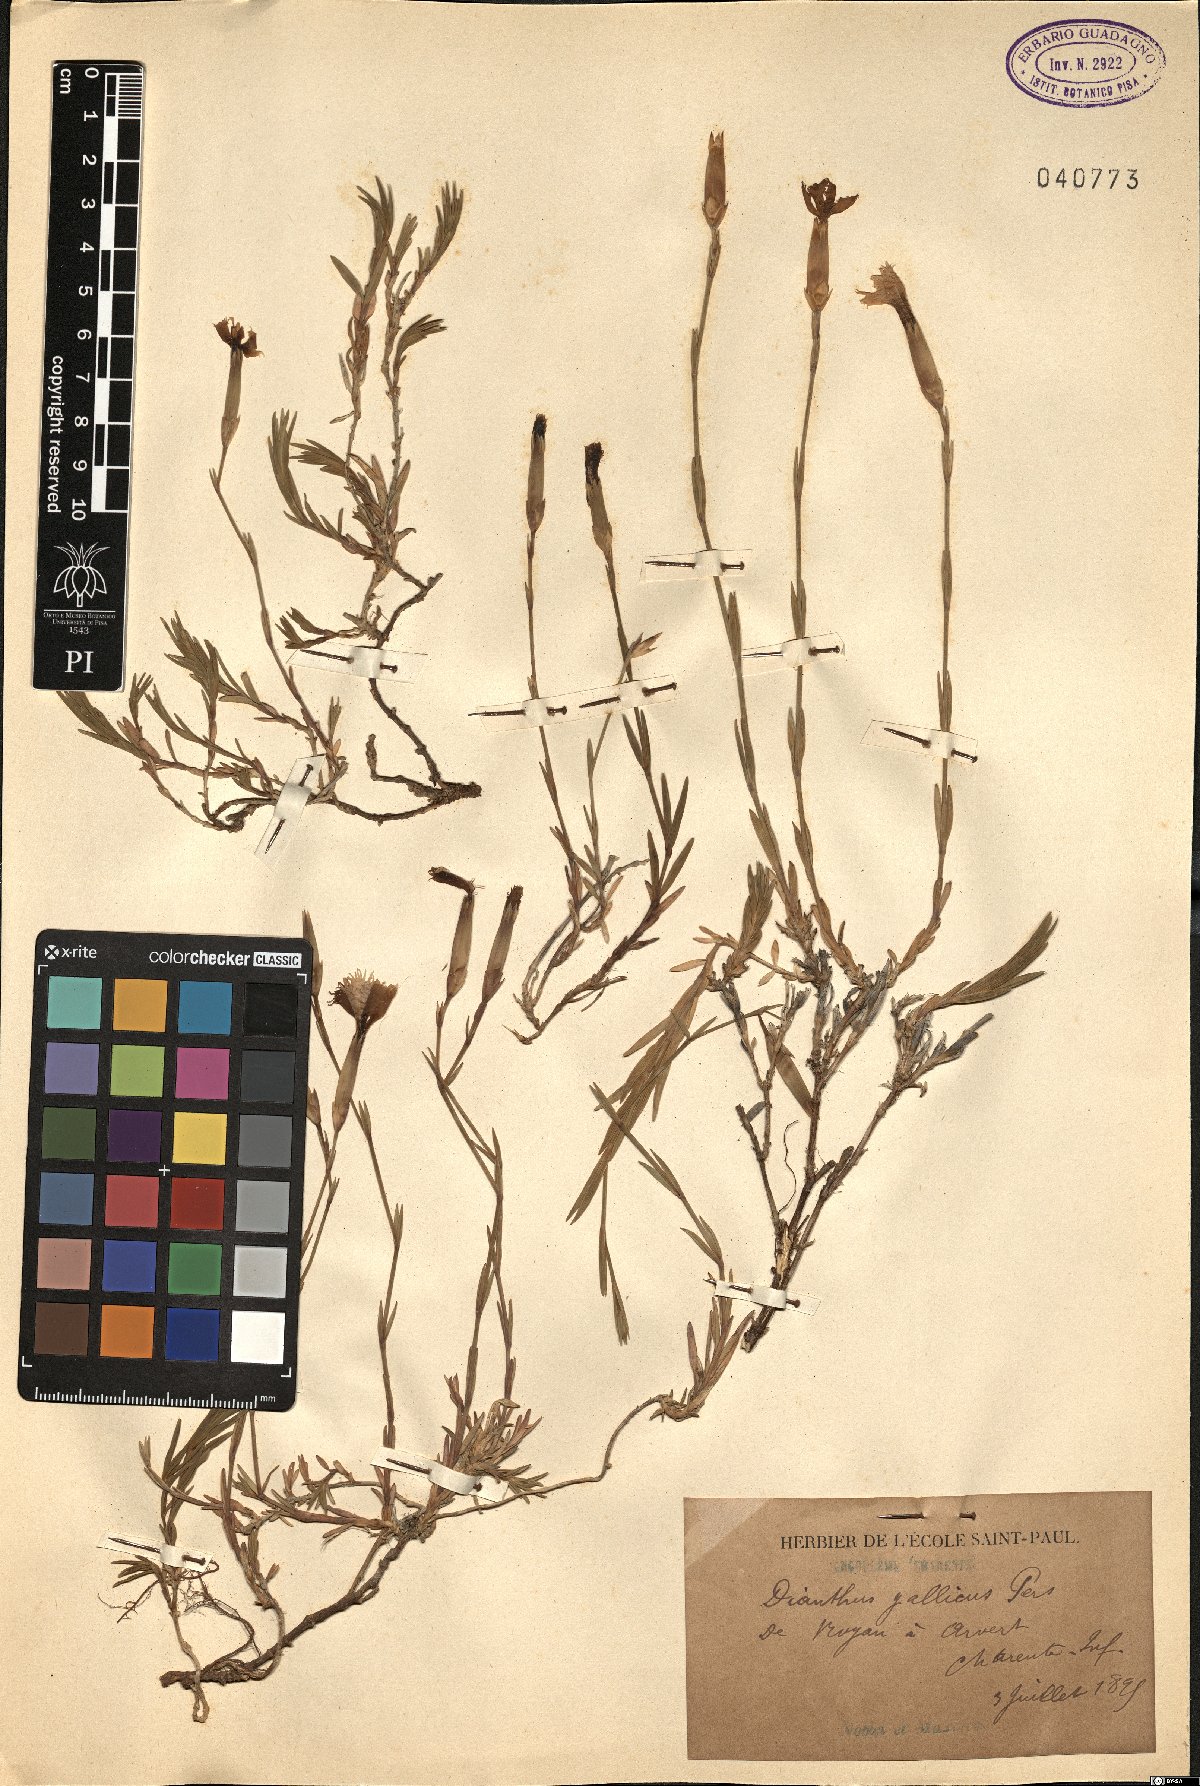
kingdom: Plantae
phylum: Tracheophyta
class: Magnoliopsida
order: Caryophyllales
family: Caryophyllaceae
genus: Dianthus
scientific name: Dianthus gallicus
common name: Jersey pink
